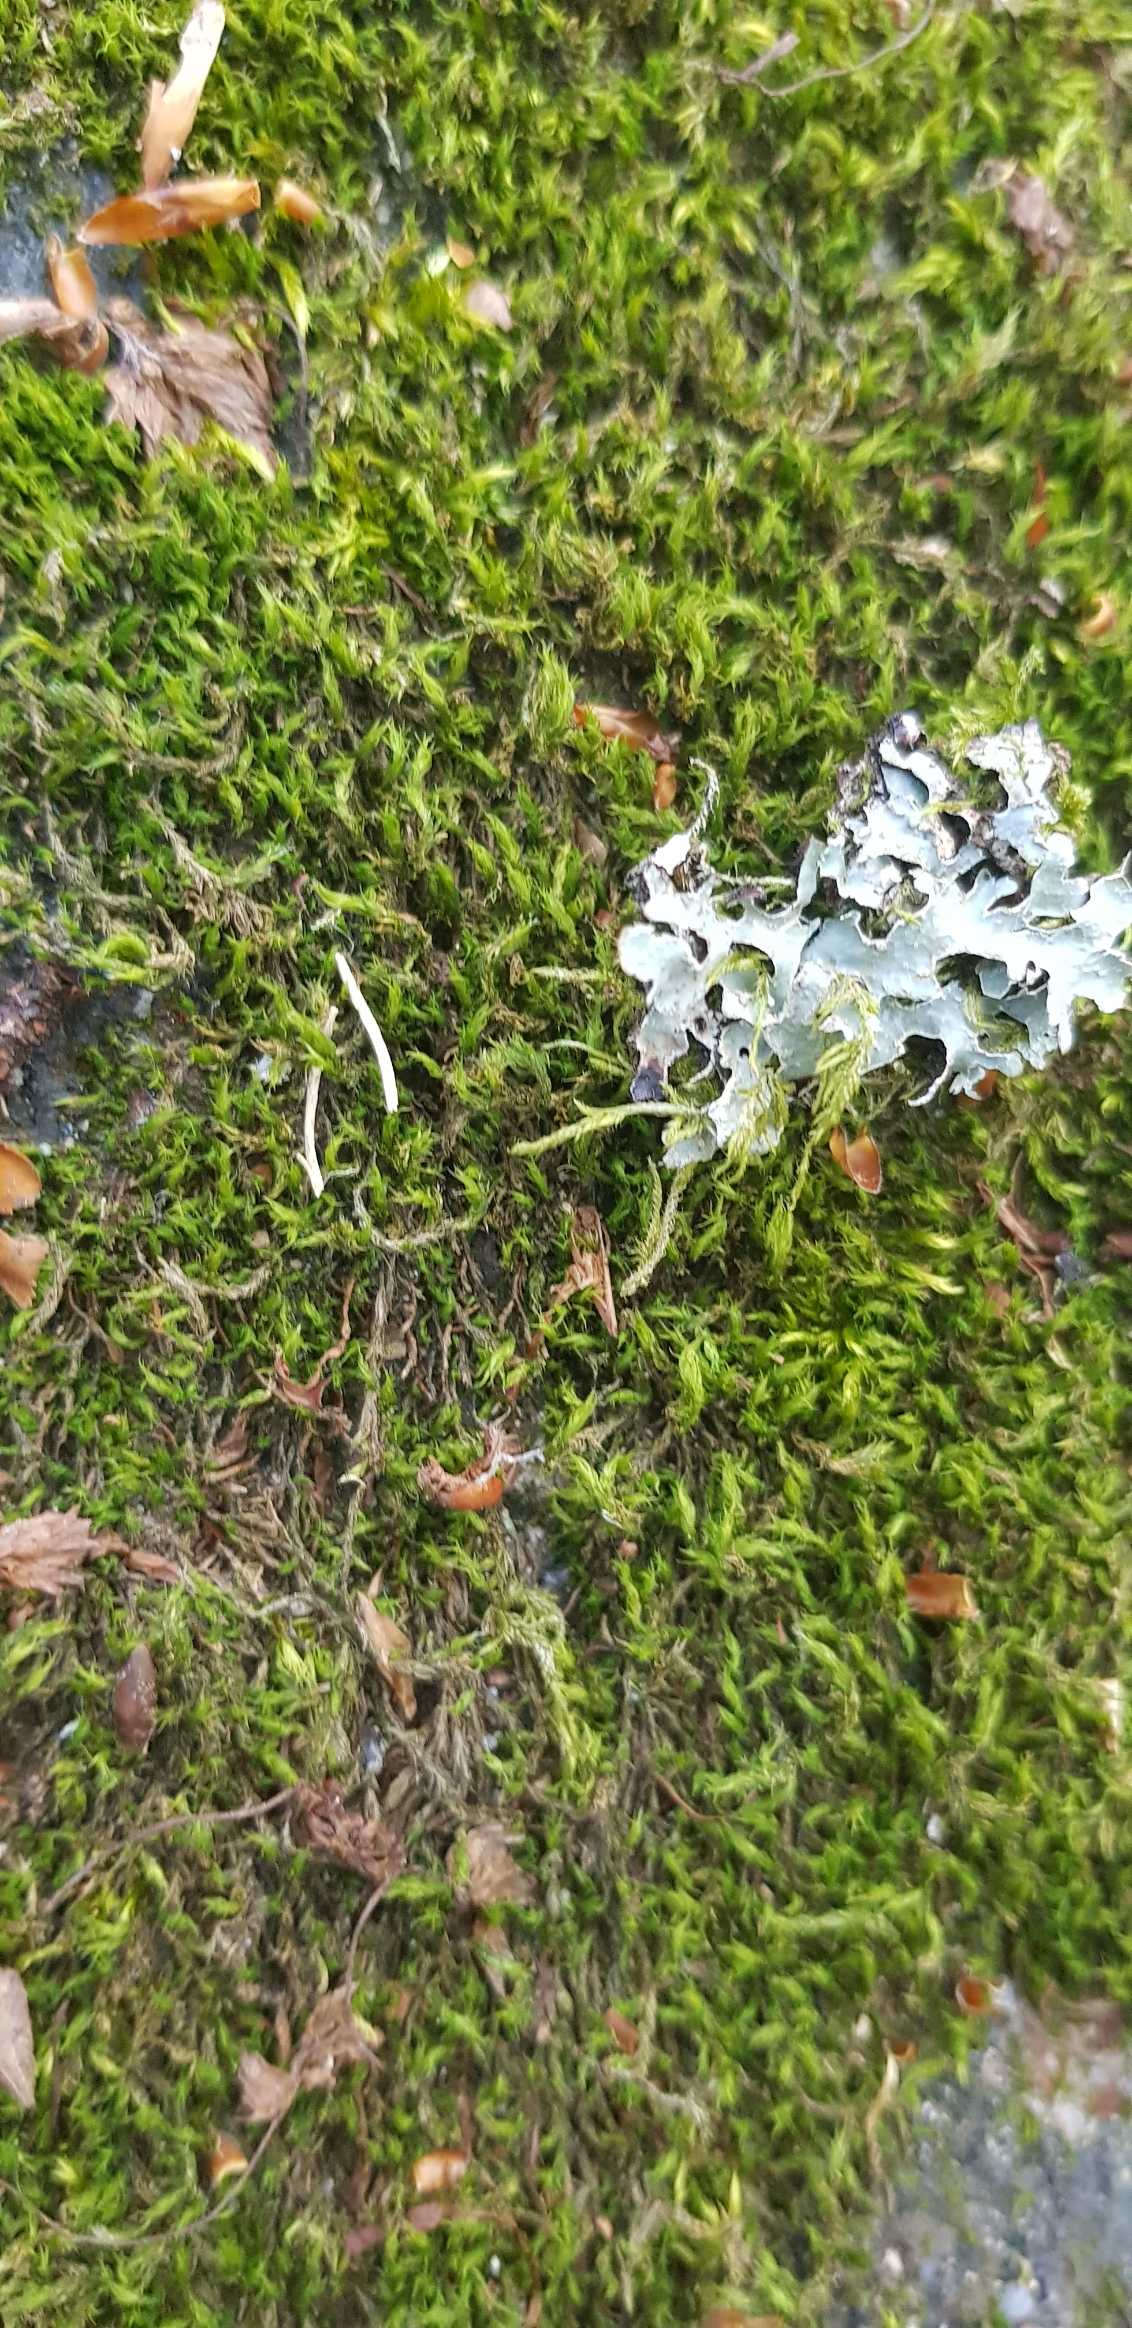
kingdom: Fungi
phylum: Ascomycota
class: Lecanoromycetes
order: Lecanorales
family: Parmeliaceae
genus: Parmelia
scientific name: Parmelia sulcata
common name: Rynket skållav
